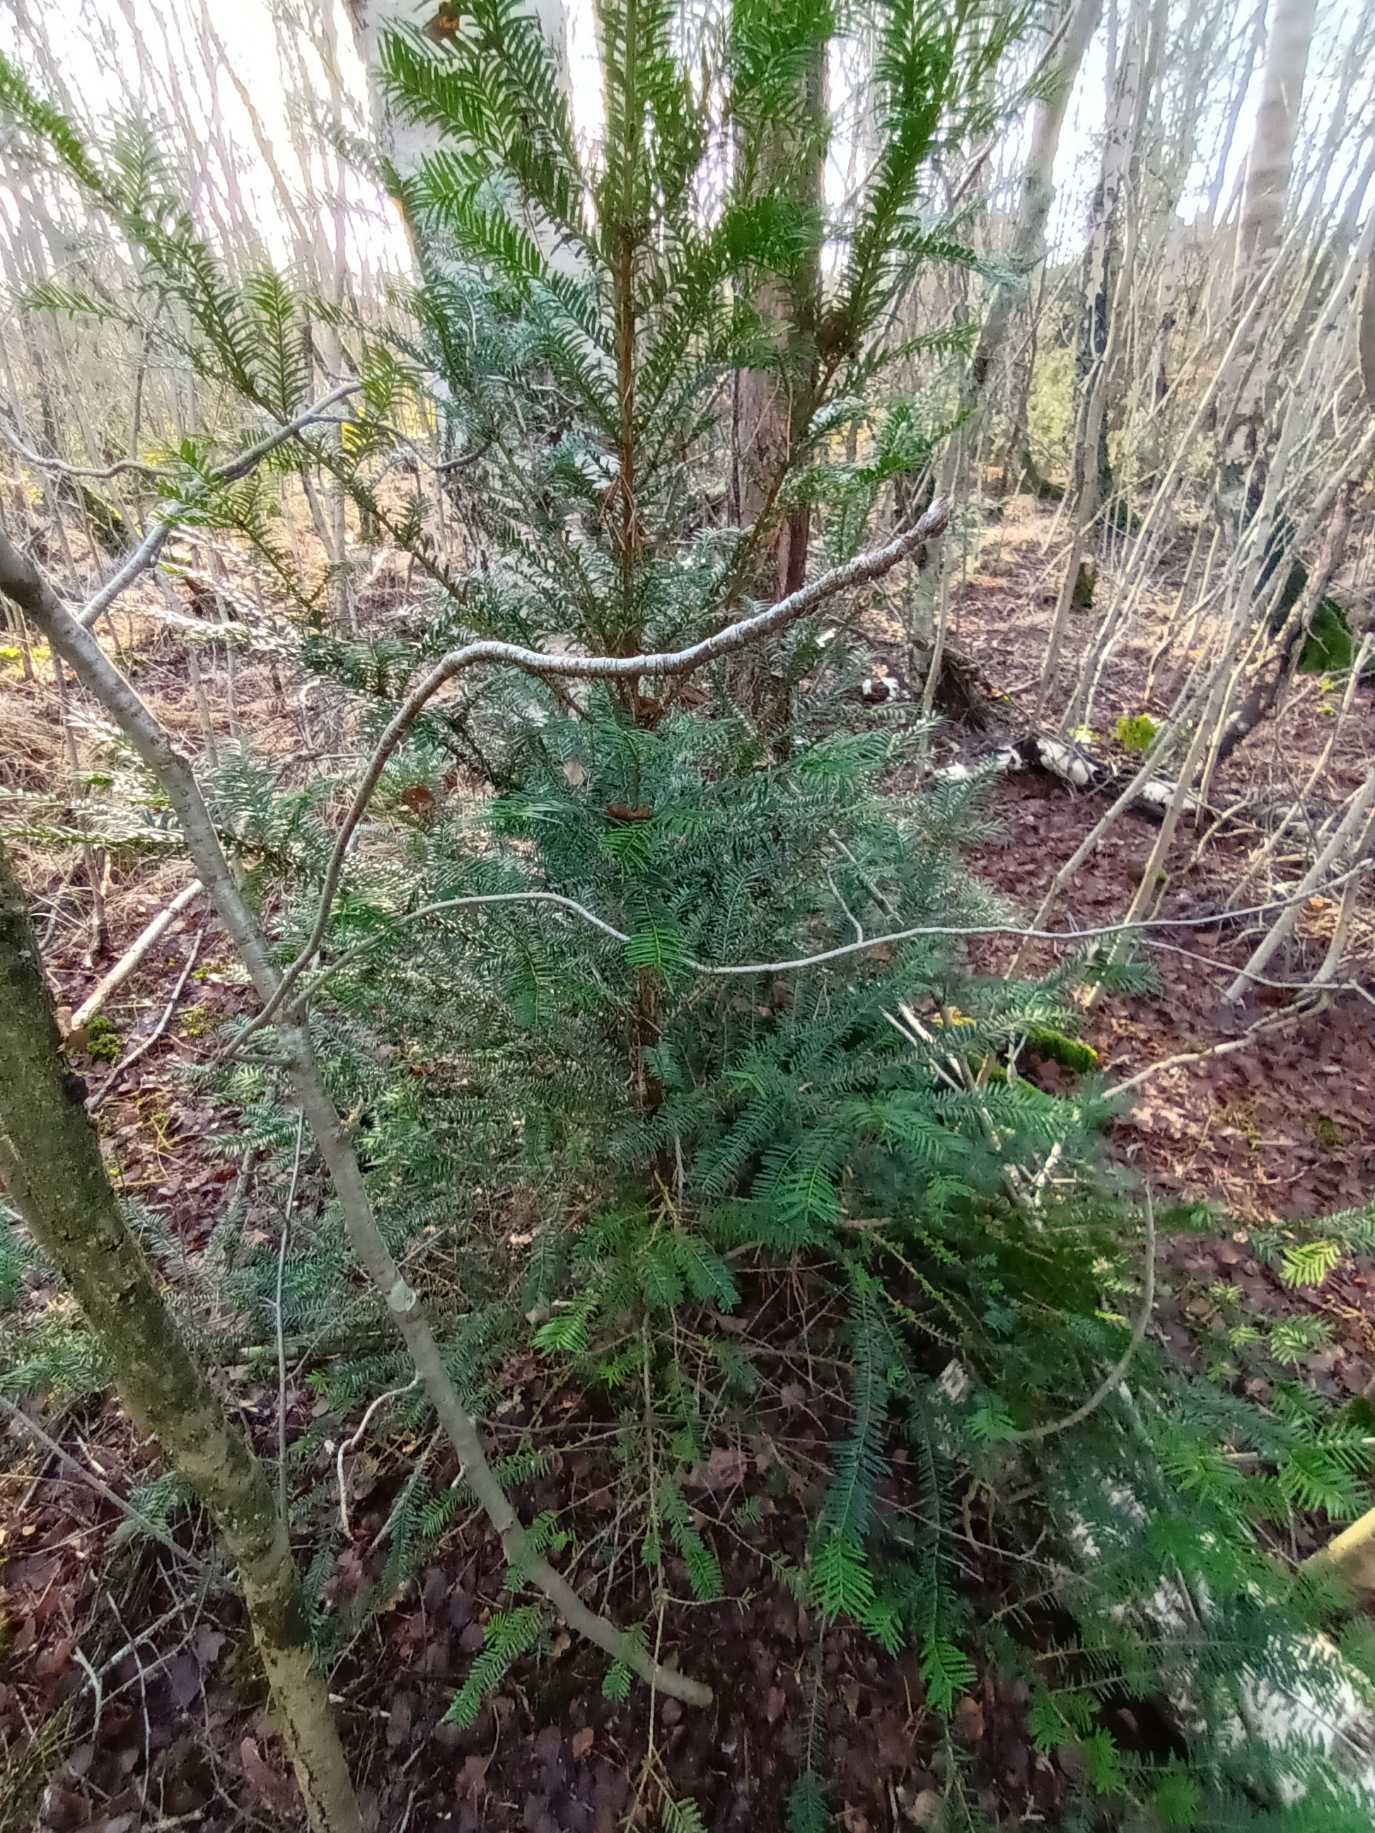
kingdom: Plantae
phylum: Tracheophyta
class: Pinopsida
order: Pinales
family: Taxaceae
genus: Taxus
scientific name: Taxus baccata
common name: Almindelig taks
